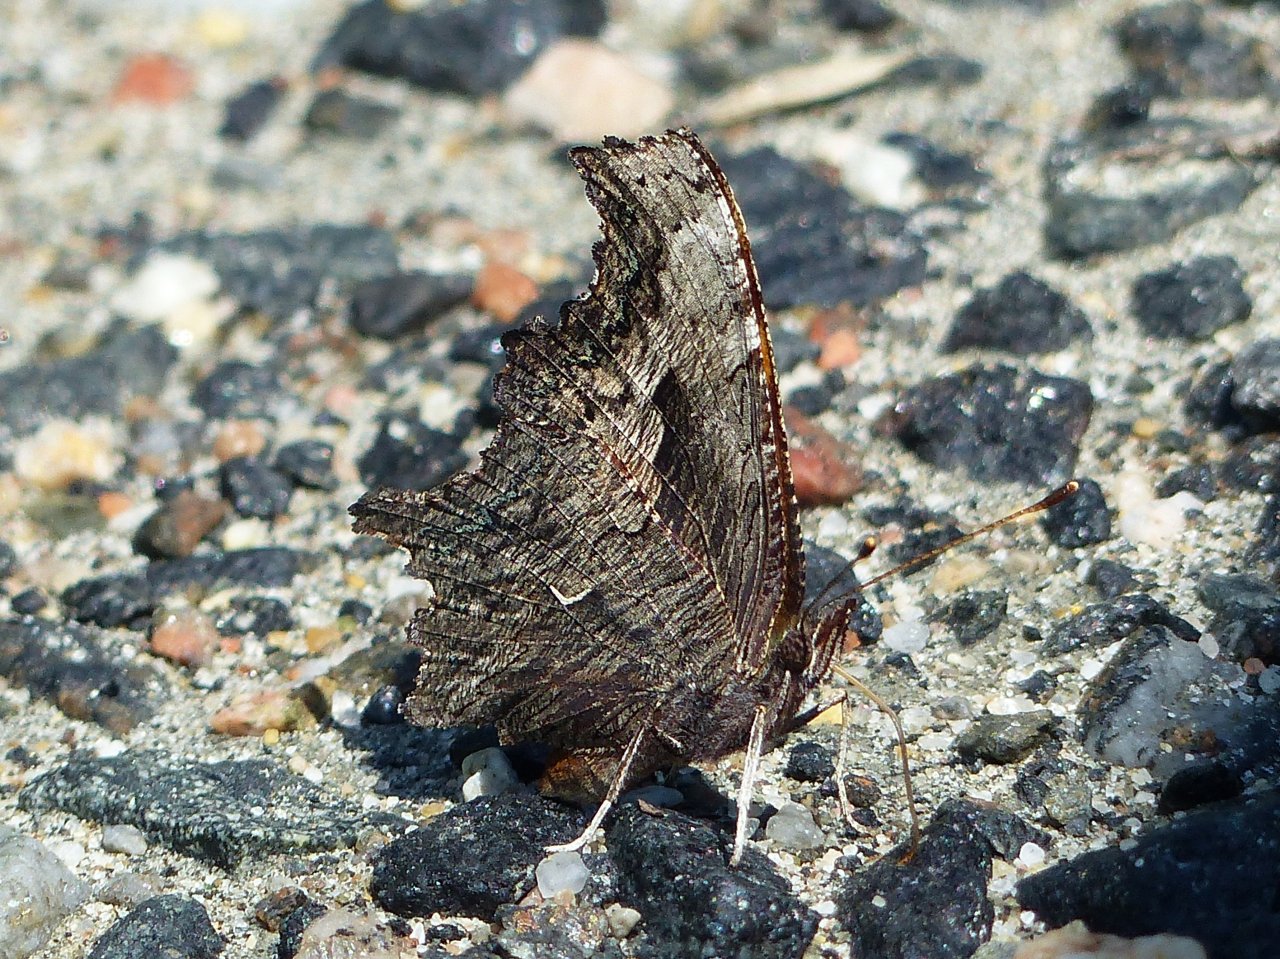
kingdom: Animalia
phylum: Arthropoda
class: Insecta
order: Lepidoptera
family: Nymphalidae
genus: Polygonia
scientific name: Polygonia progne
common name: Gray Comma
